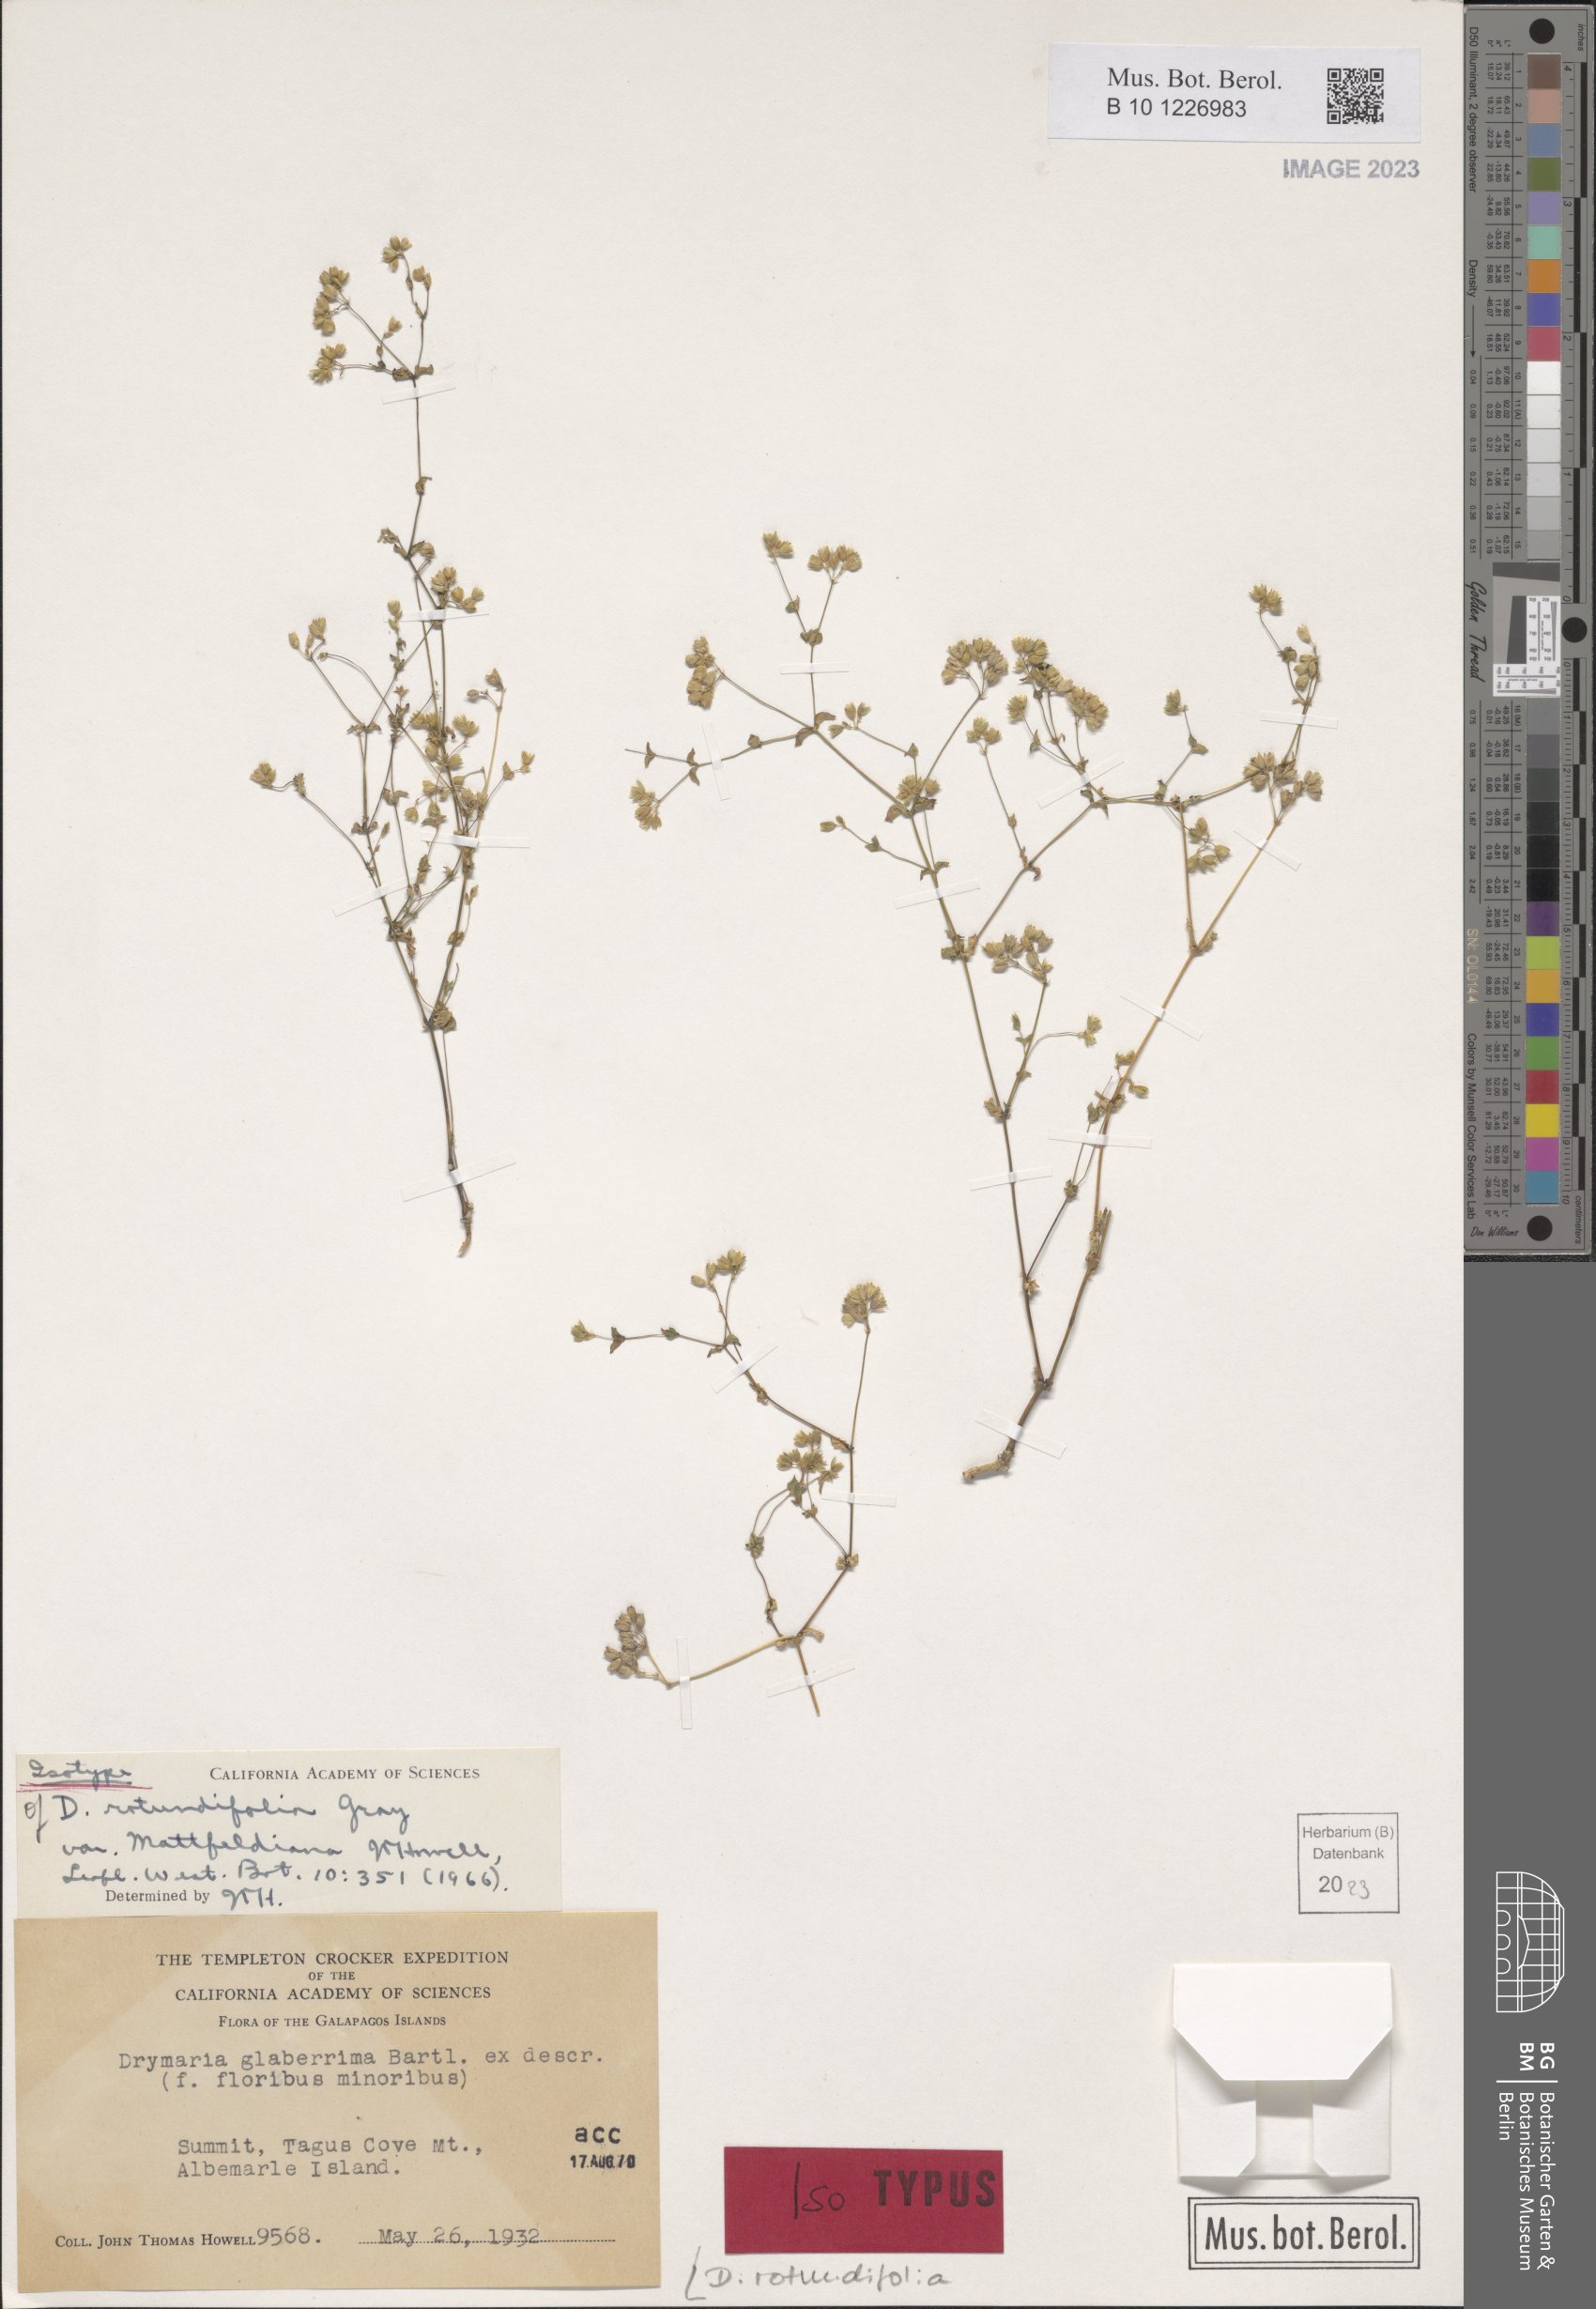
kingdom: Plantae
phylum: Tracheophyta
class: Magnoliopsida
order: Caryophyllales
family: Caryophyllaceae
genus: Drymaria
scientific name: Drymaria rotundifolia
